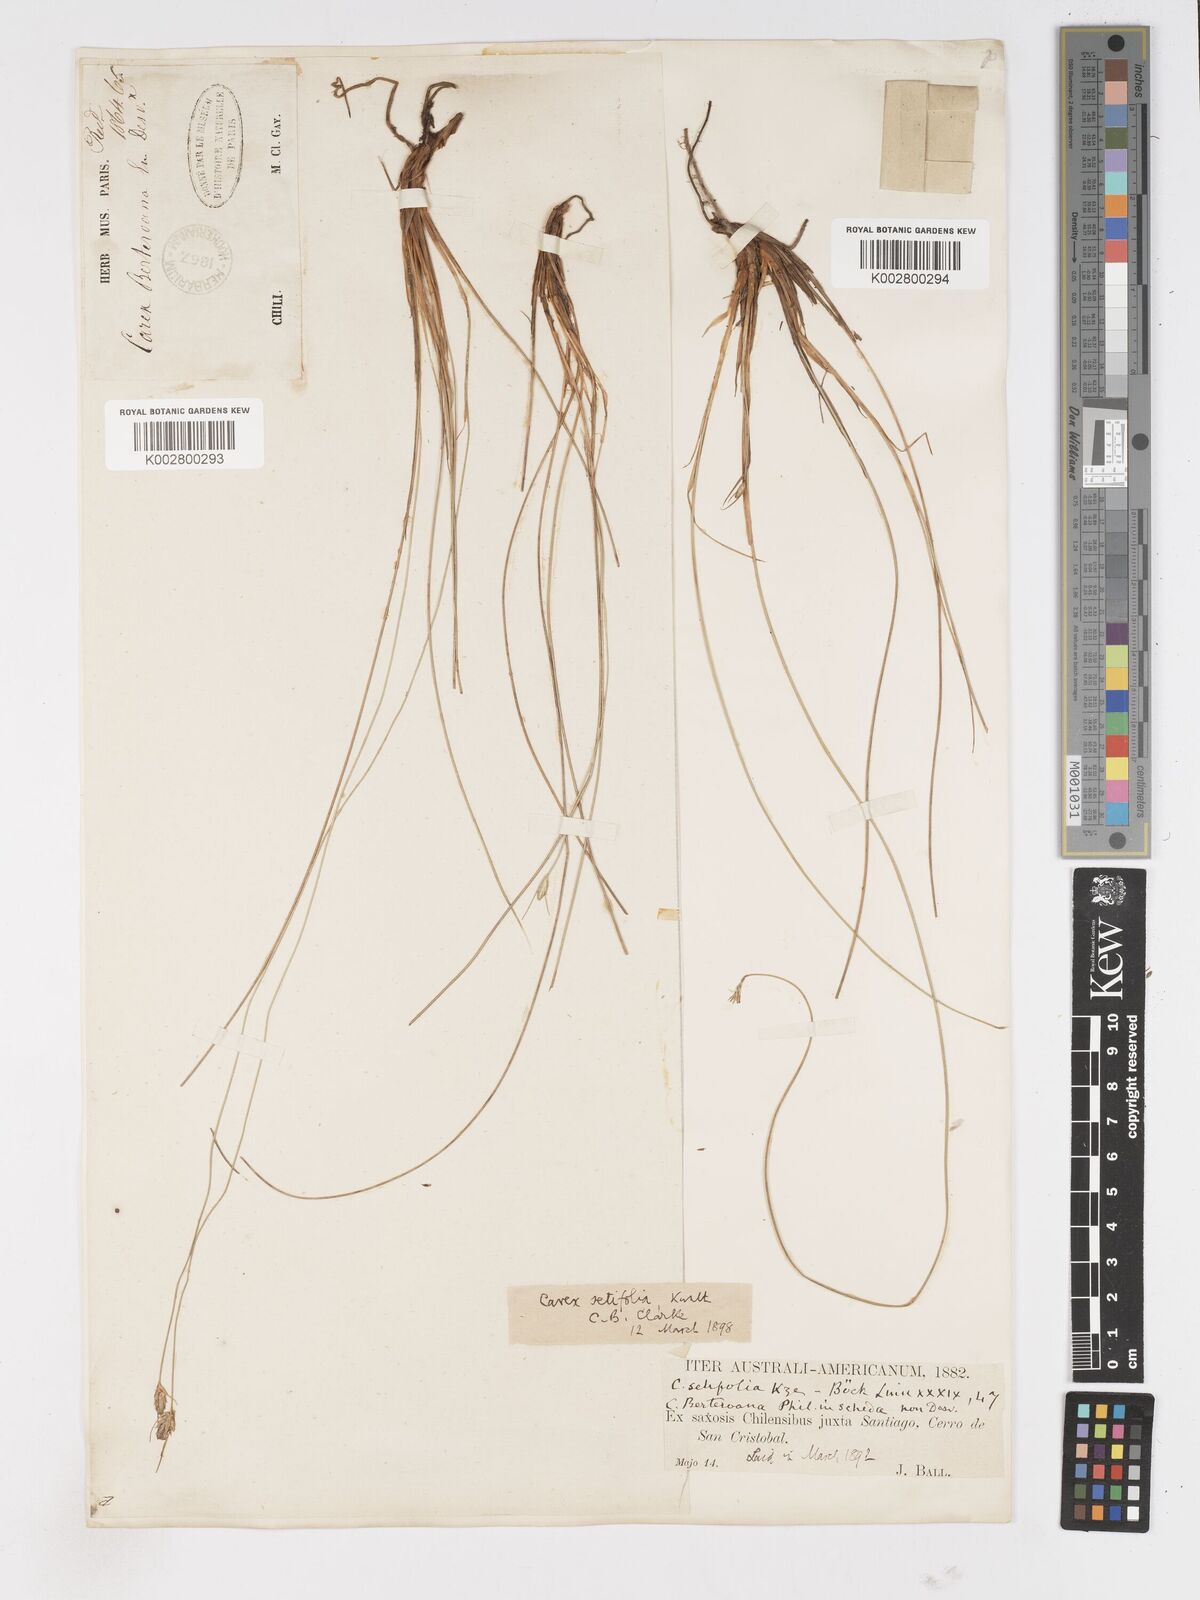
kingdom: Plantae
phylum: Tracheophyta
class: Liliopsida
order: Poales
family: Cyperaceae
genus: Carex
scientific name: Carex setifolia
